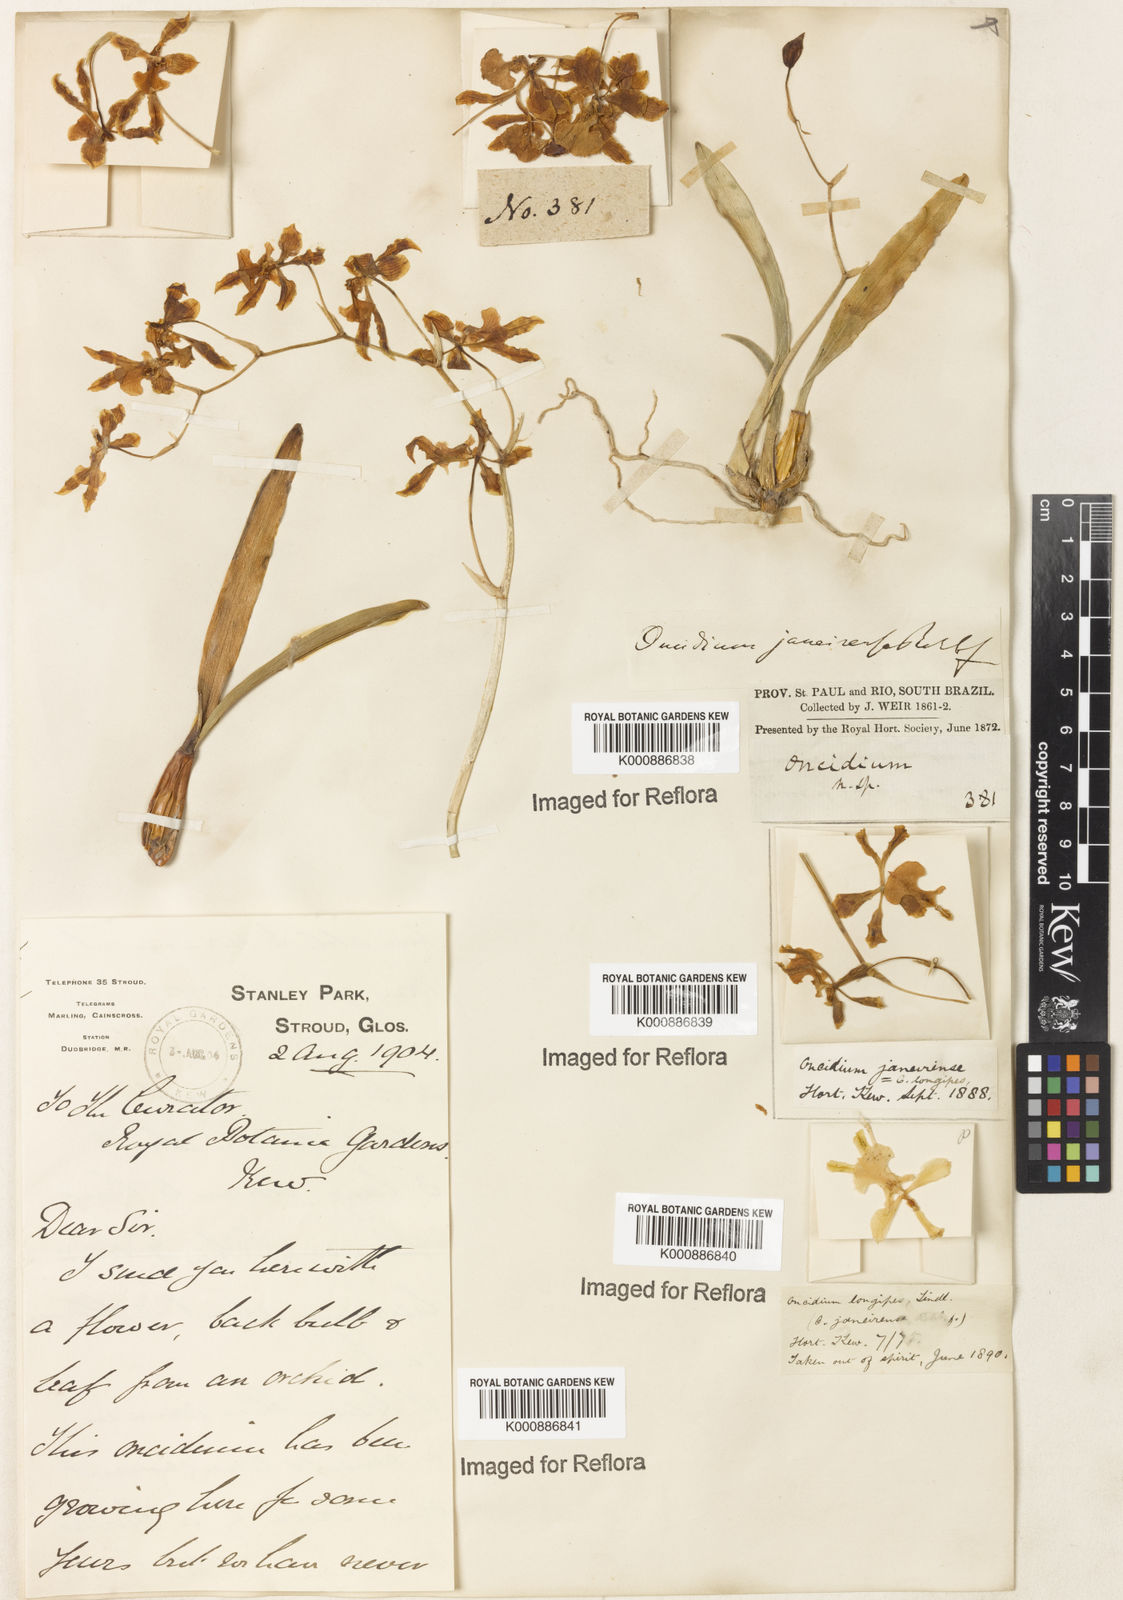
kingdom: Plantae
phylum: Tracheophyta
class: Liliopsida
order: Asparagales
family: Orchidaceae
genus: Gomesa
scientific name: Gomesa uniflora
